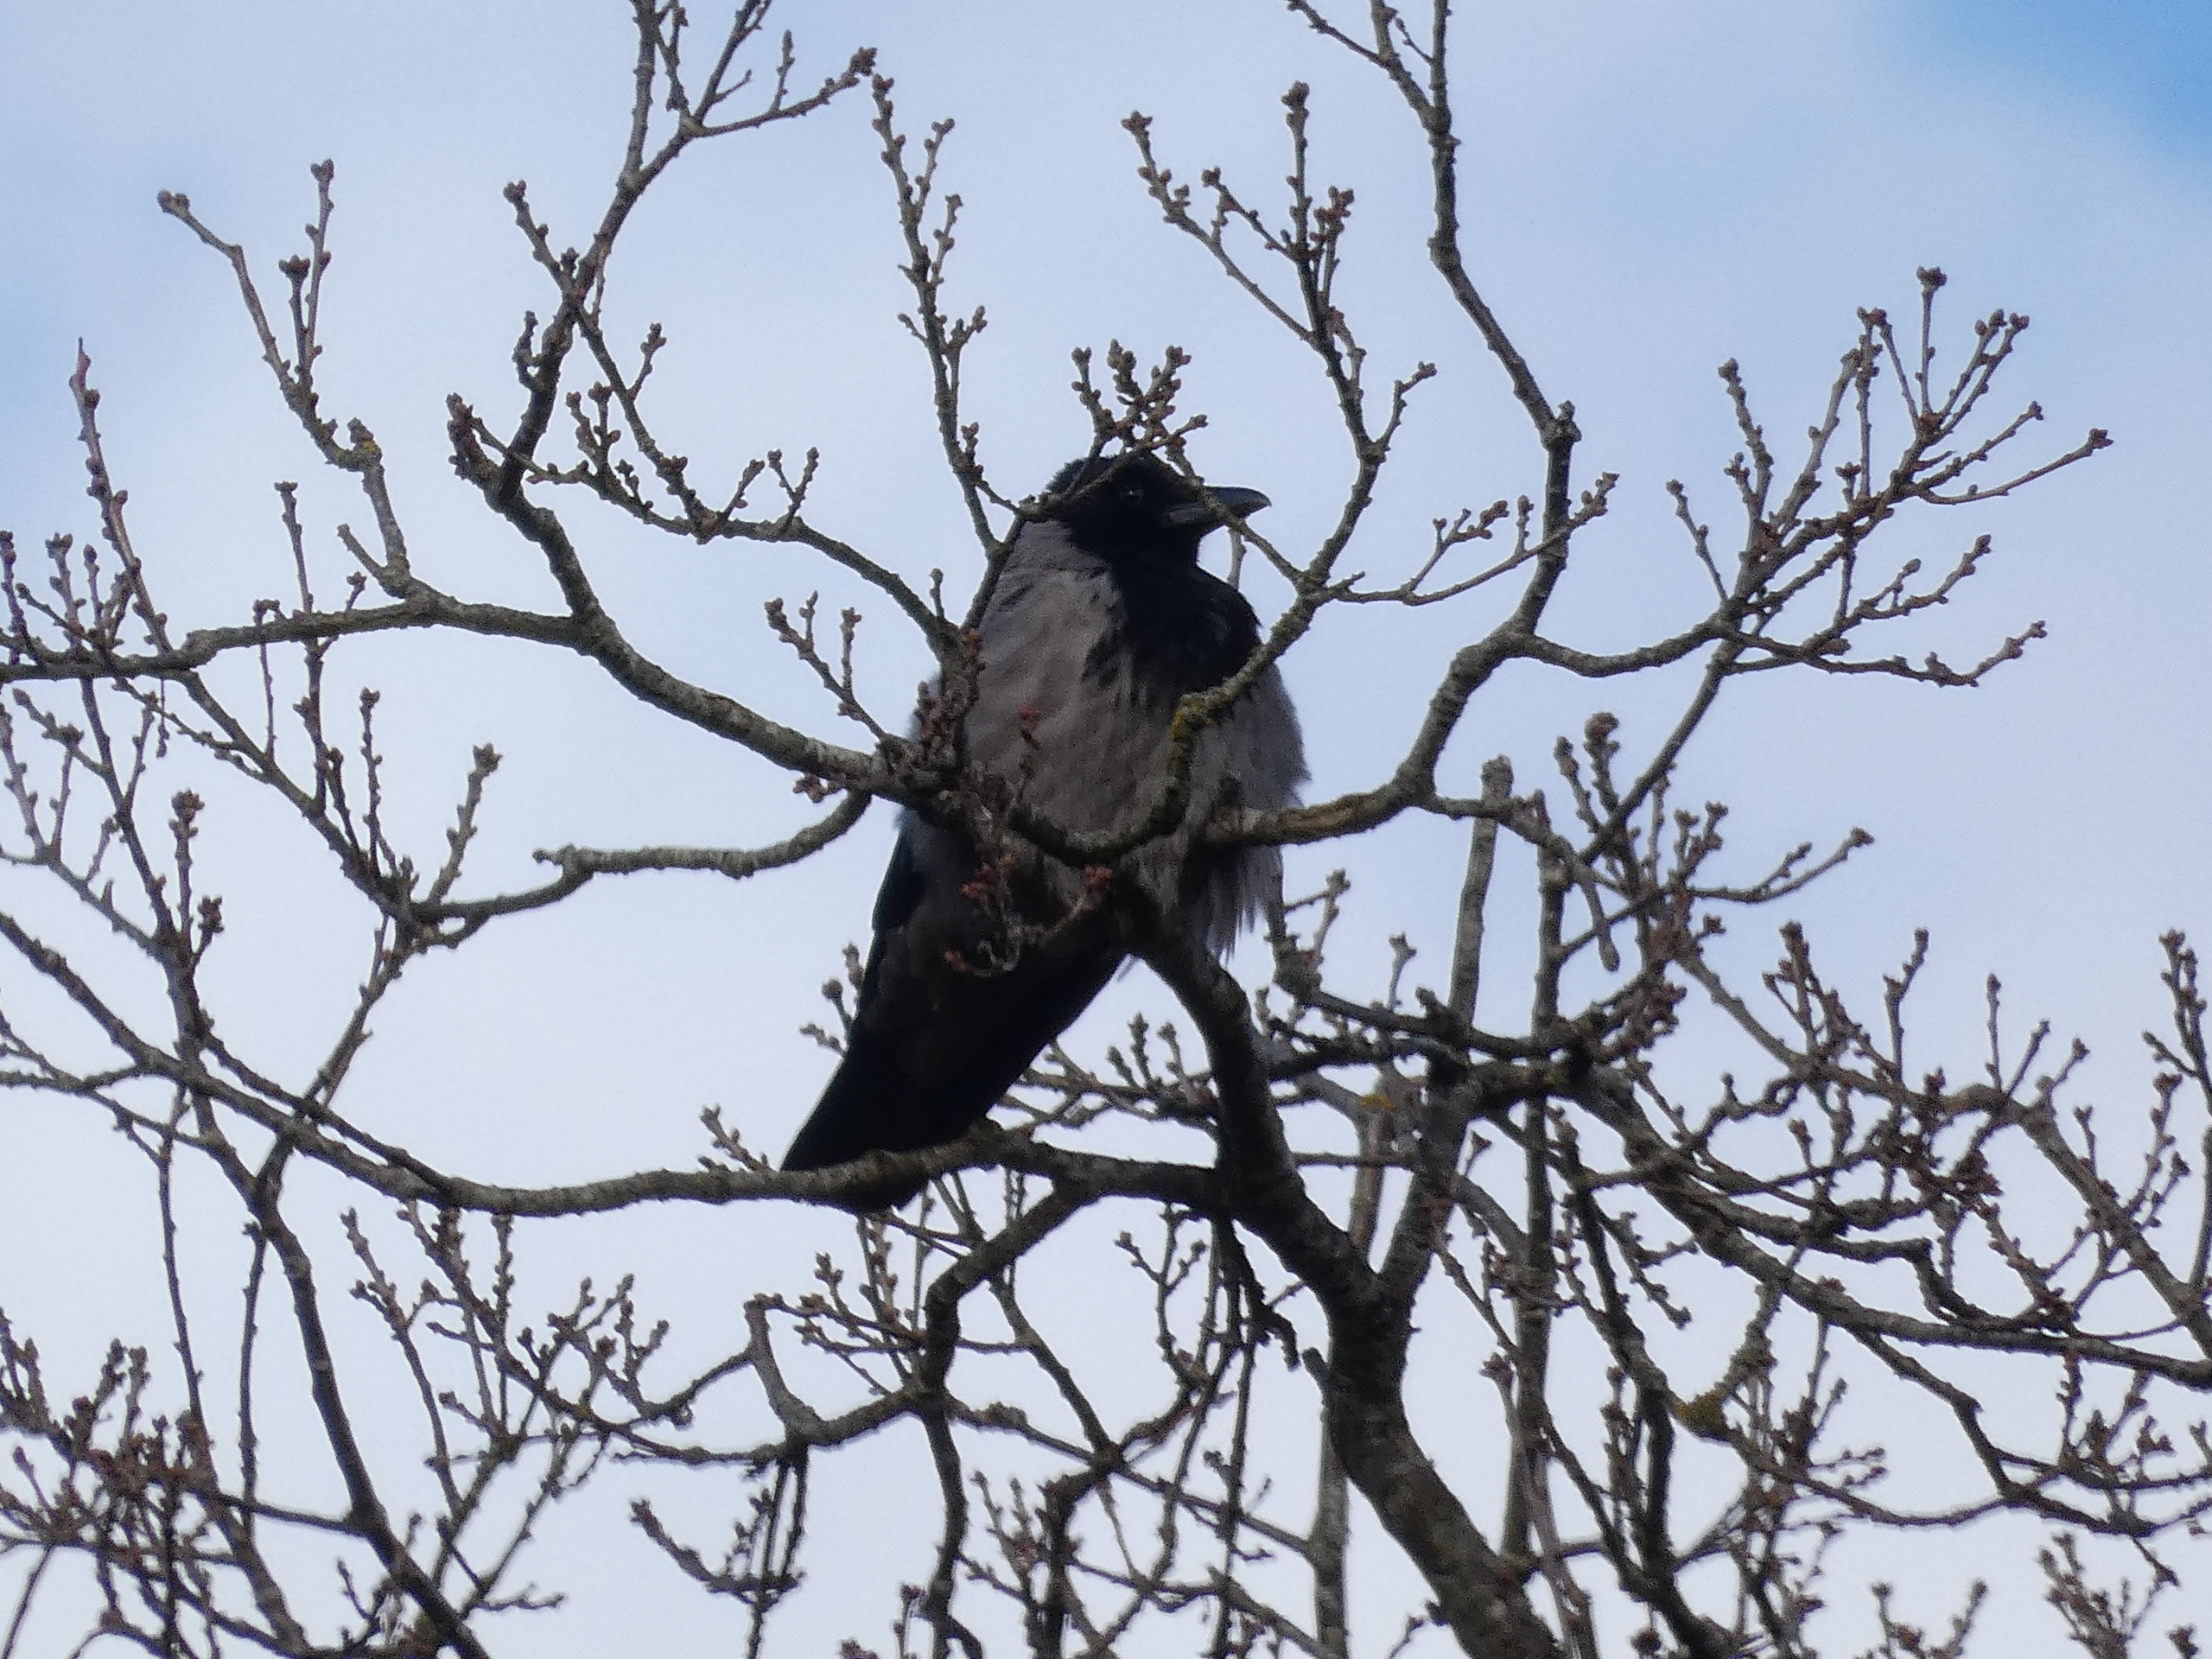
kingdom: Animalia
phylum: Chordata
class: Aves
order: Passeriformes
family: Corvidae
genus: Corvus
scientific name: Corvus cornix
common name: Gråkrage
